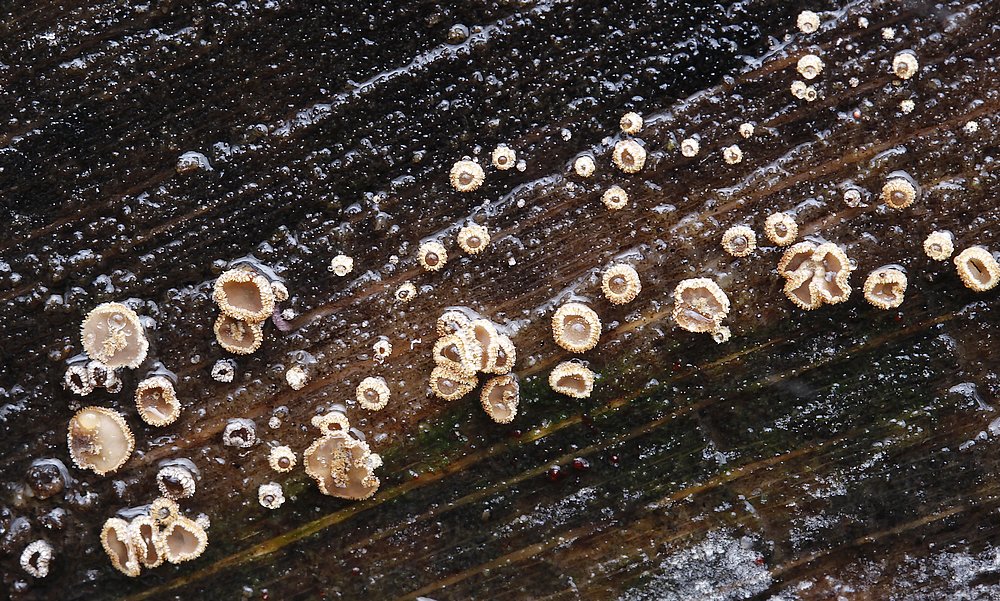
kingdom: Fungi
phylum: Ascomycota
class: Leotiomycetes
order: Helotiales
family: Lachnaceae
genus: Trichopeziza
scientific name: Trichopeziza subsulphurea
